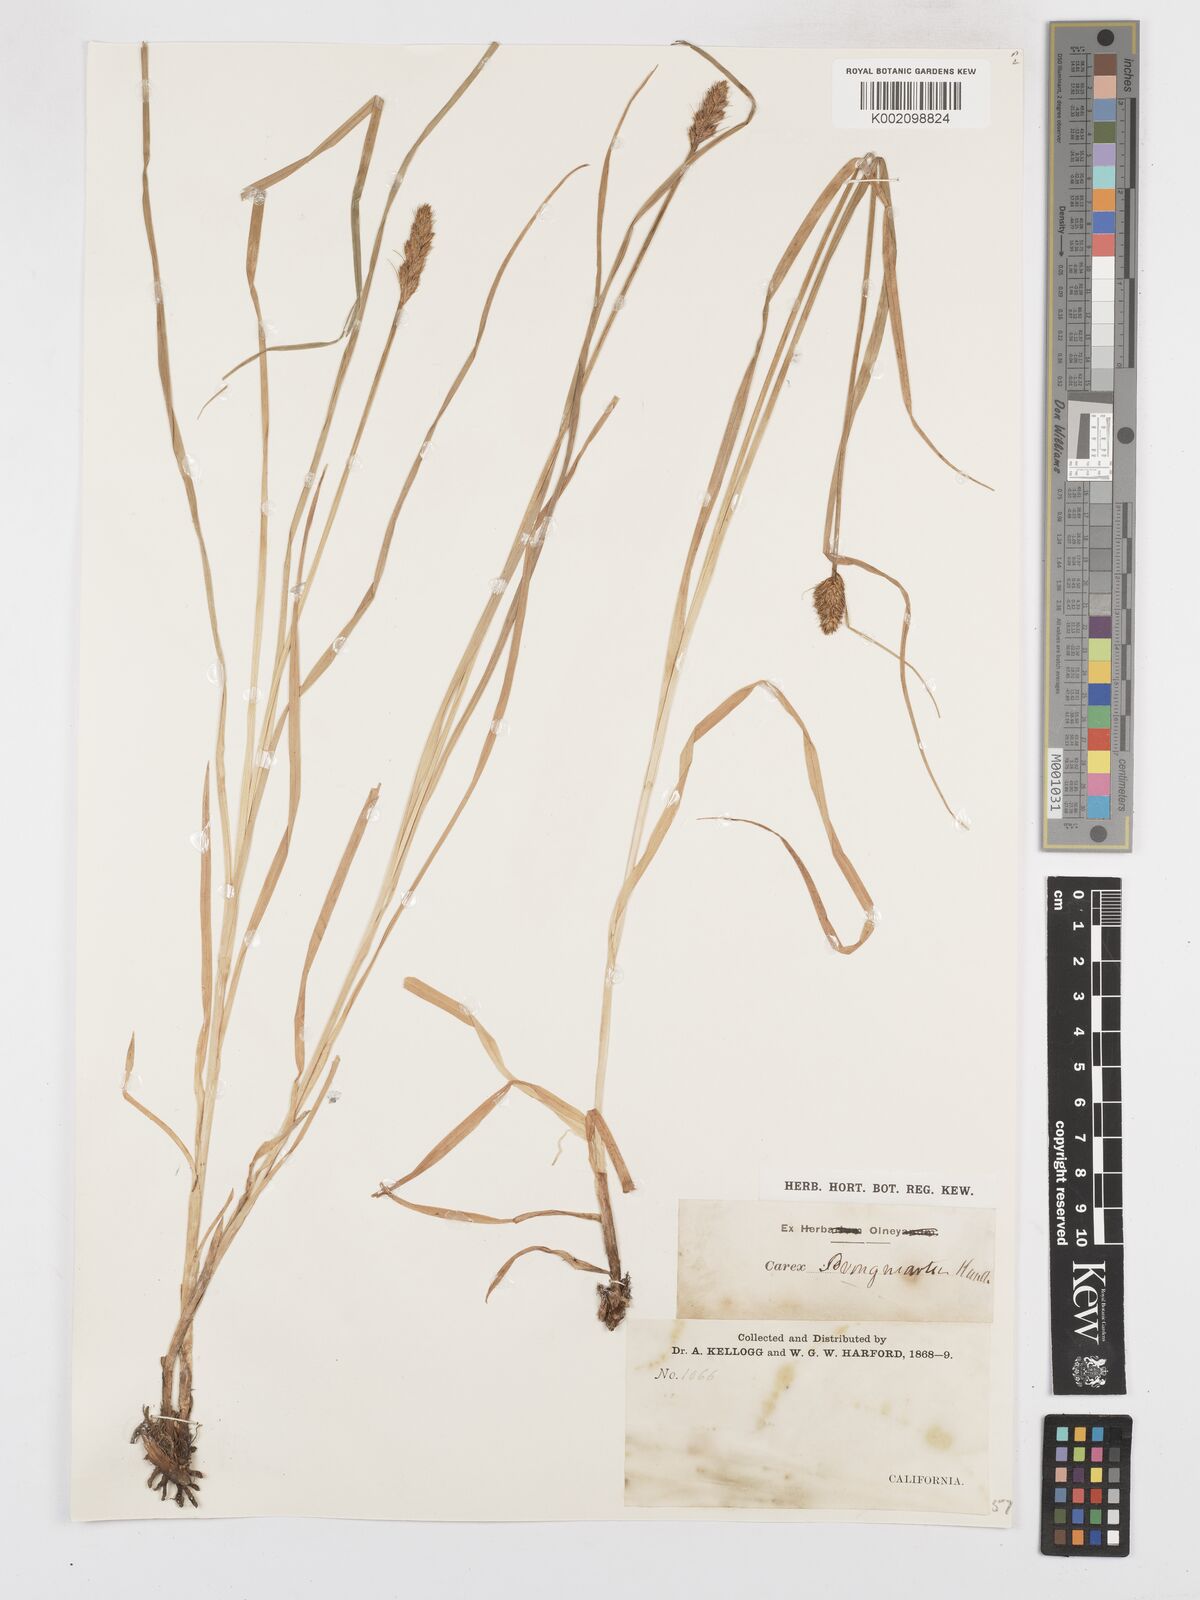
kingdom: Plantae
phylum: Tracheophyta
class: Liliopsida
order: Poales
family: Cyperaceae
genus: Carex
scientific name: Carex densa
